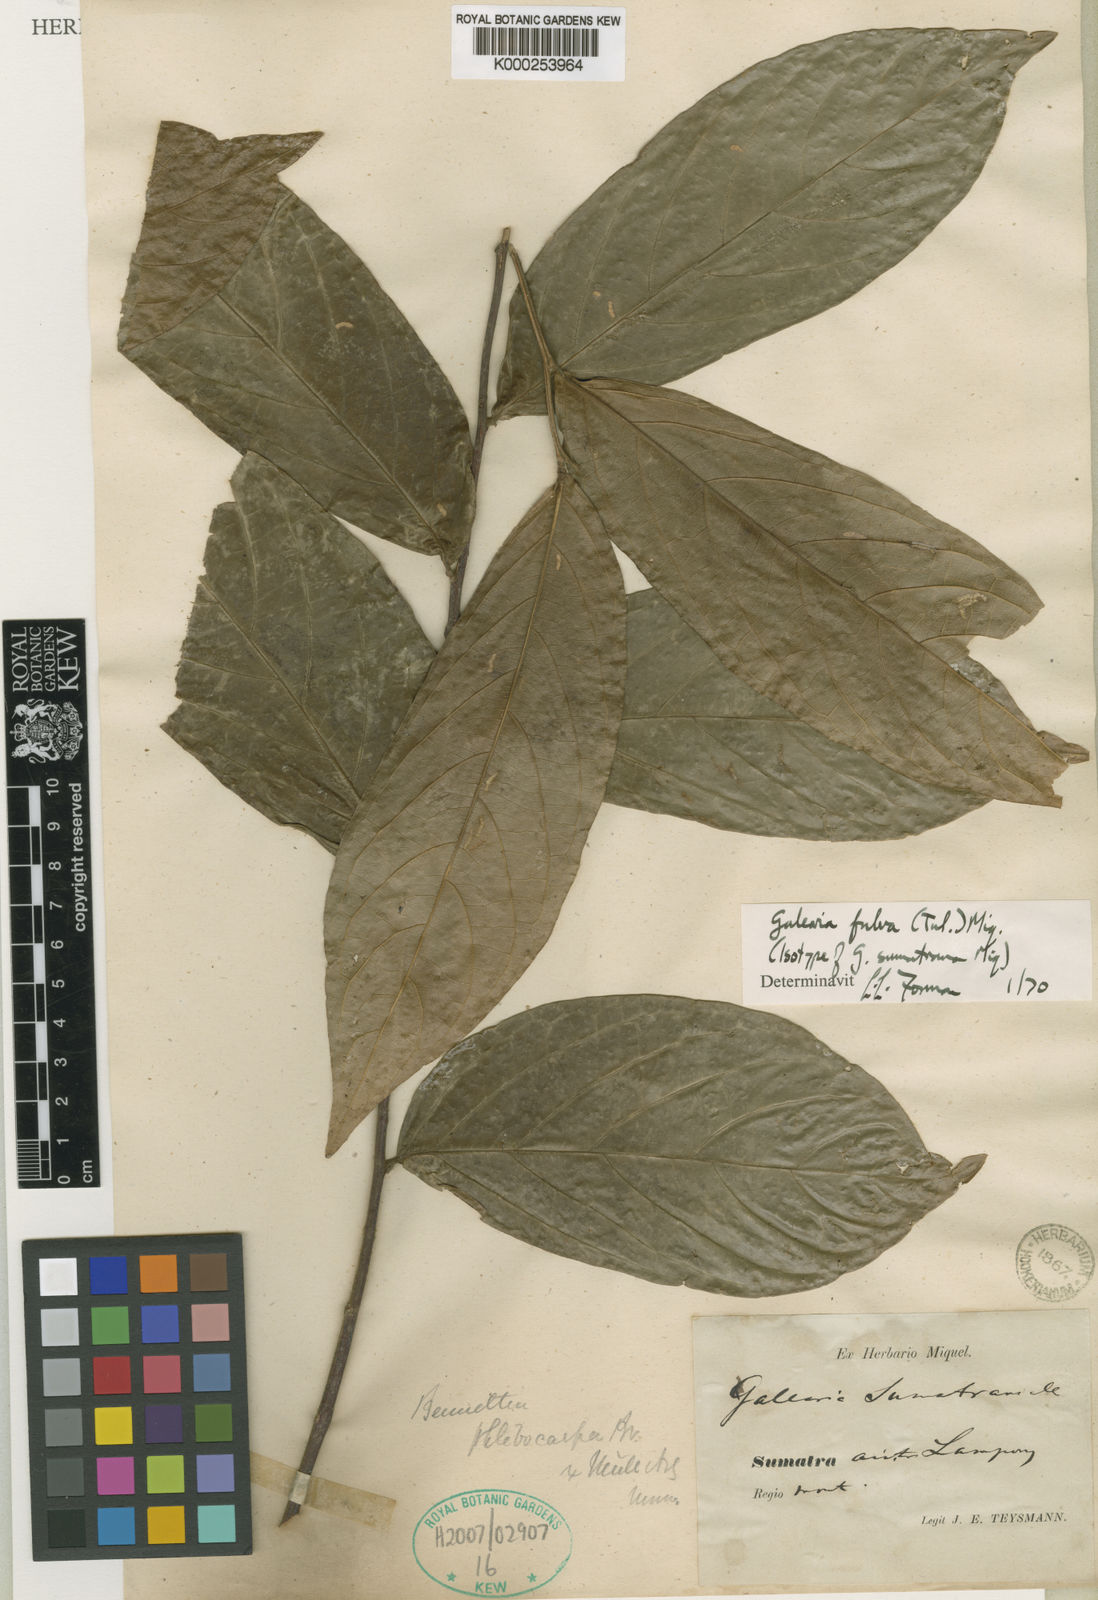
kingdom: Plantae
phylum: Tracheophyta
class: Magnoliopsida
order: Malpighiales
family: Pandaceae
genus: Galearia
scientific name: Galearia fulva
